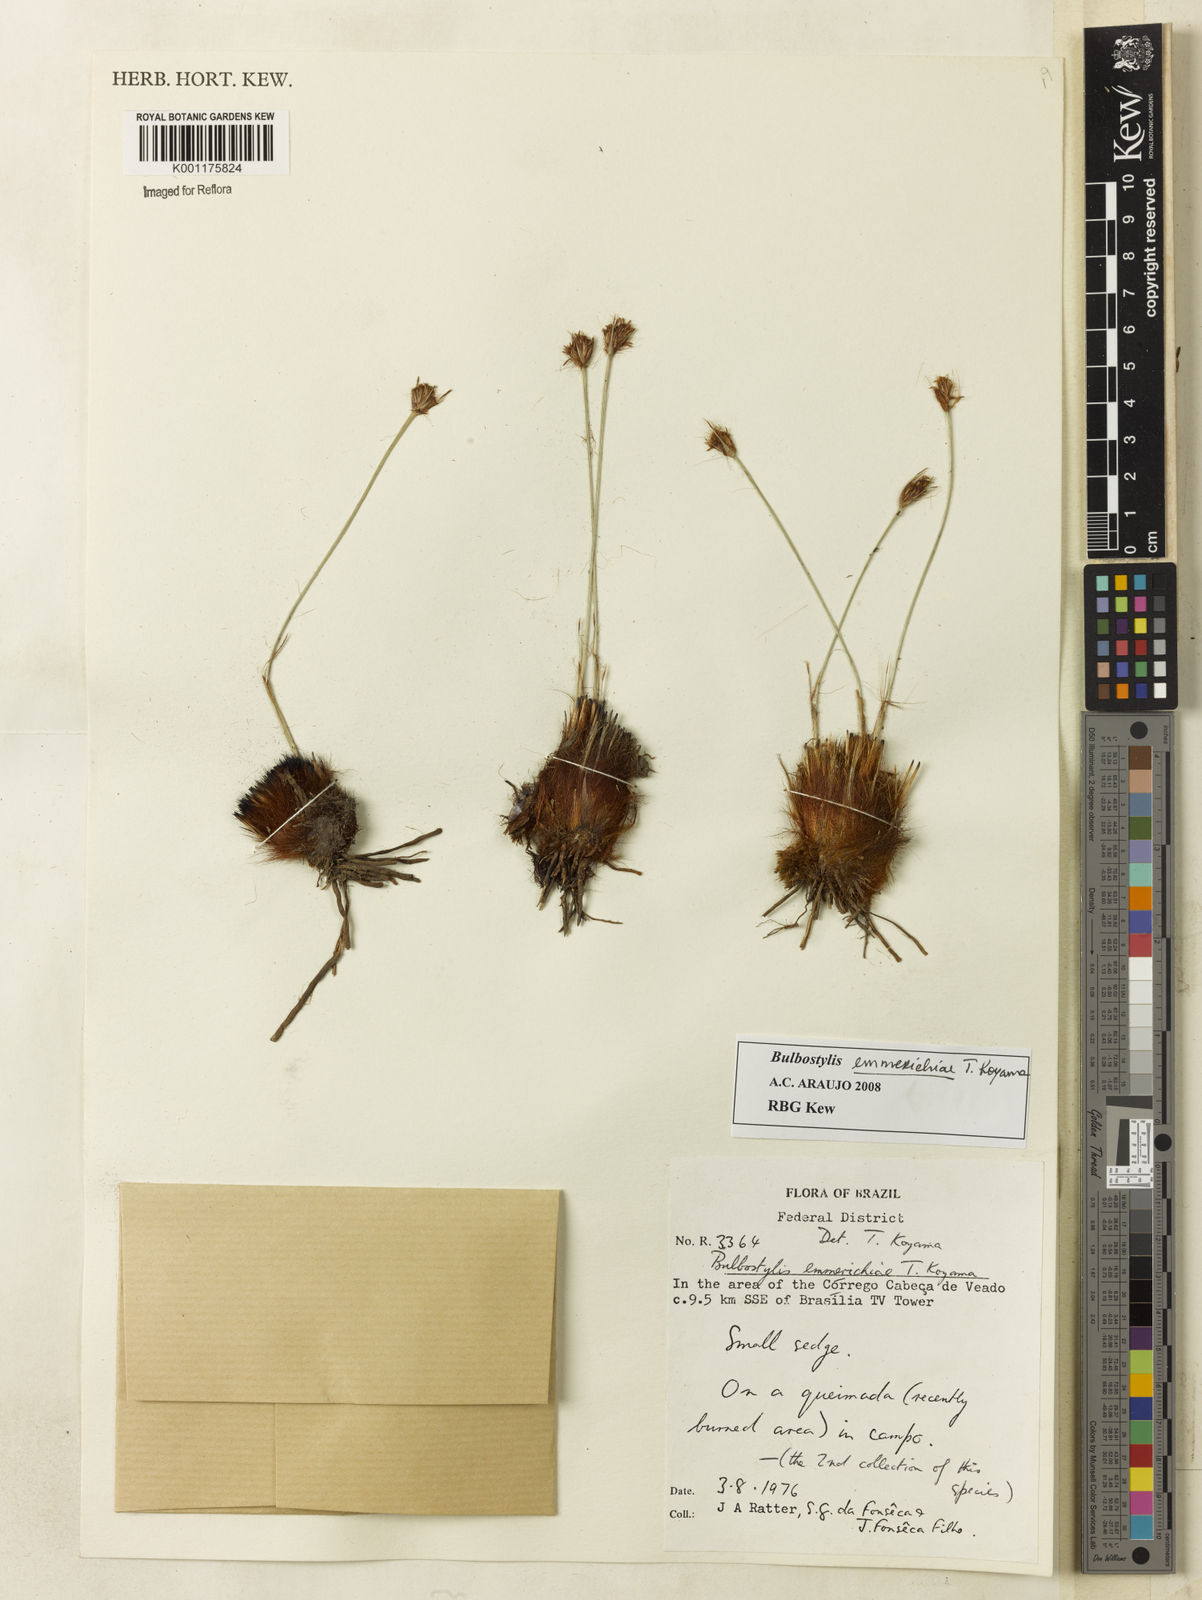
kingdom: Plantae
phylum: Tracheophyta
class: Liliopsida
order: Poales
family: Cyperaceae
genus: Bulbostylis
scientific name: Bulbostylis emmerichiae
